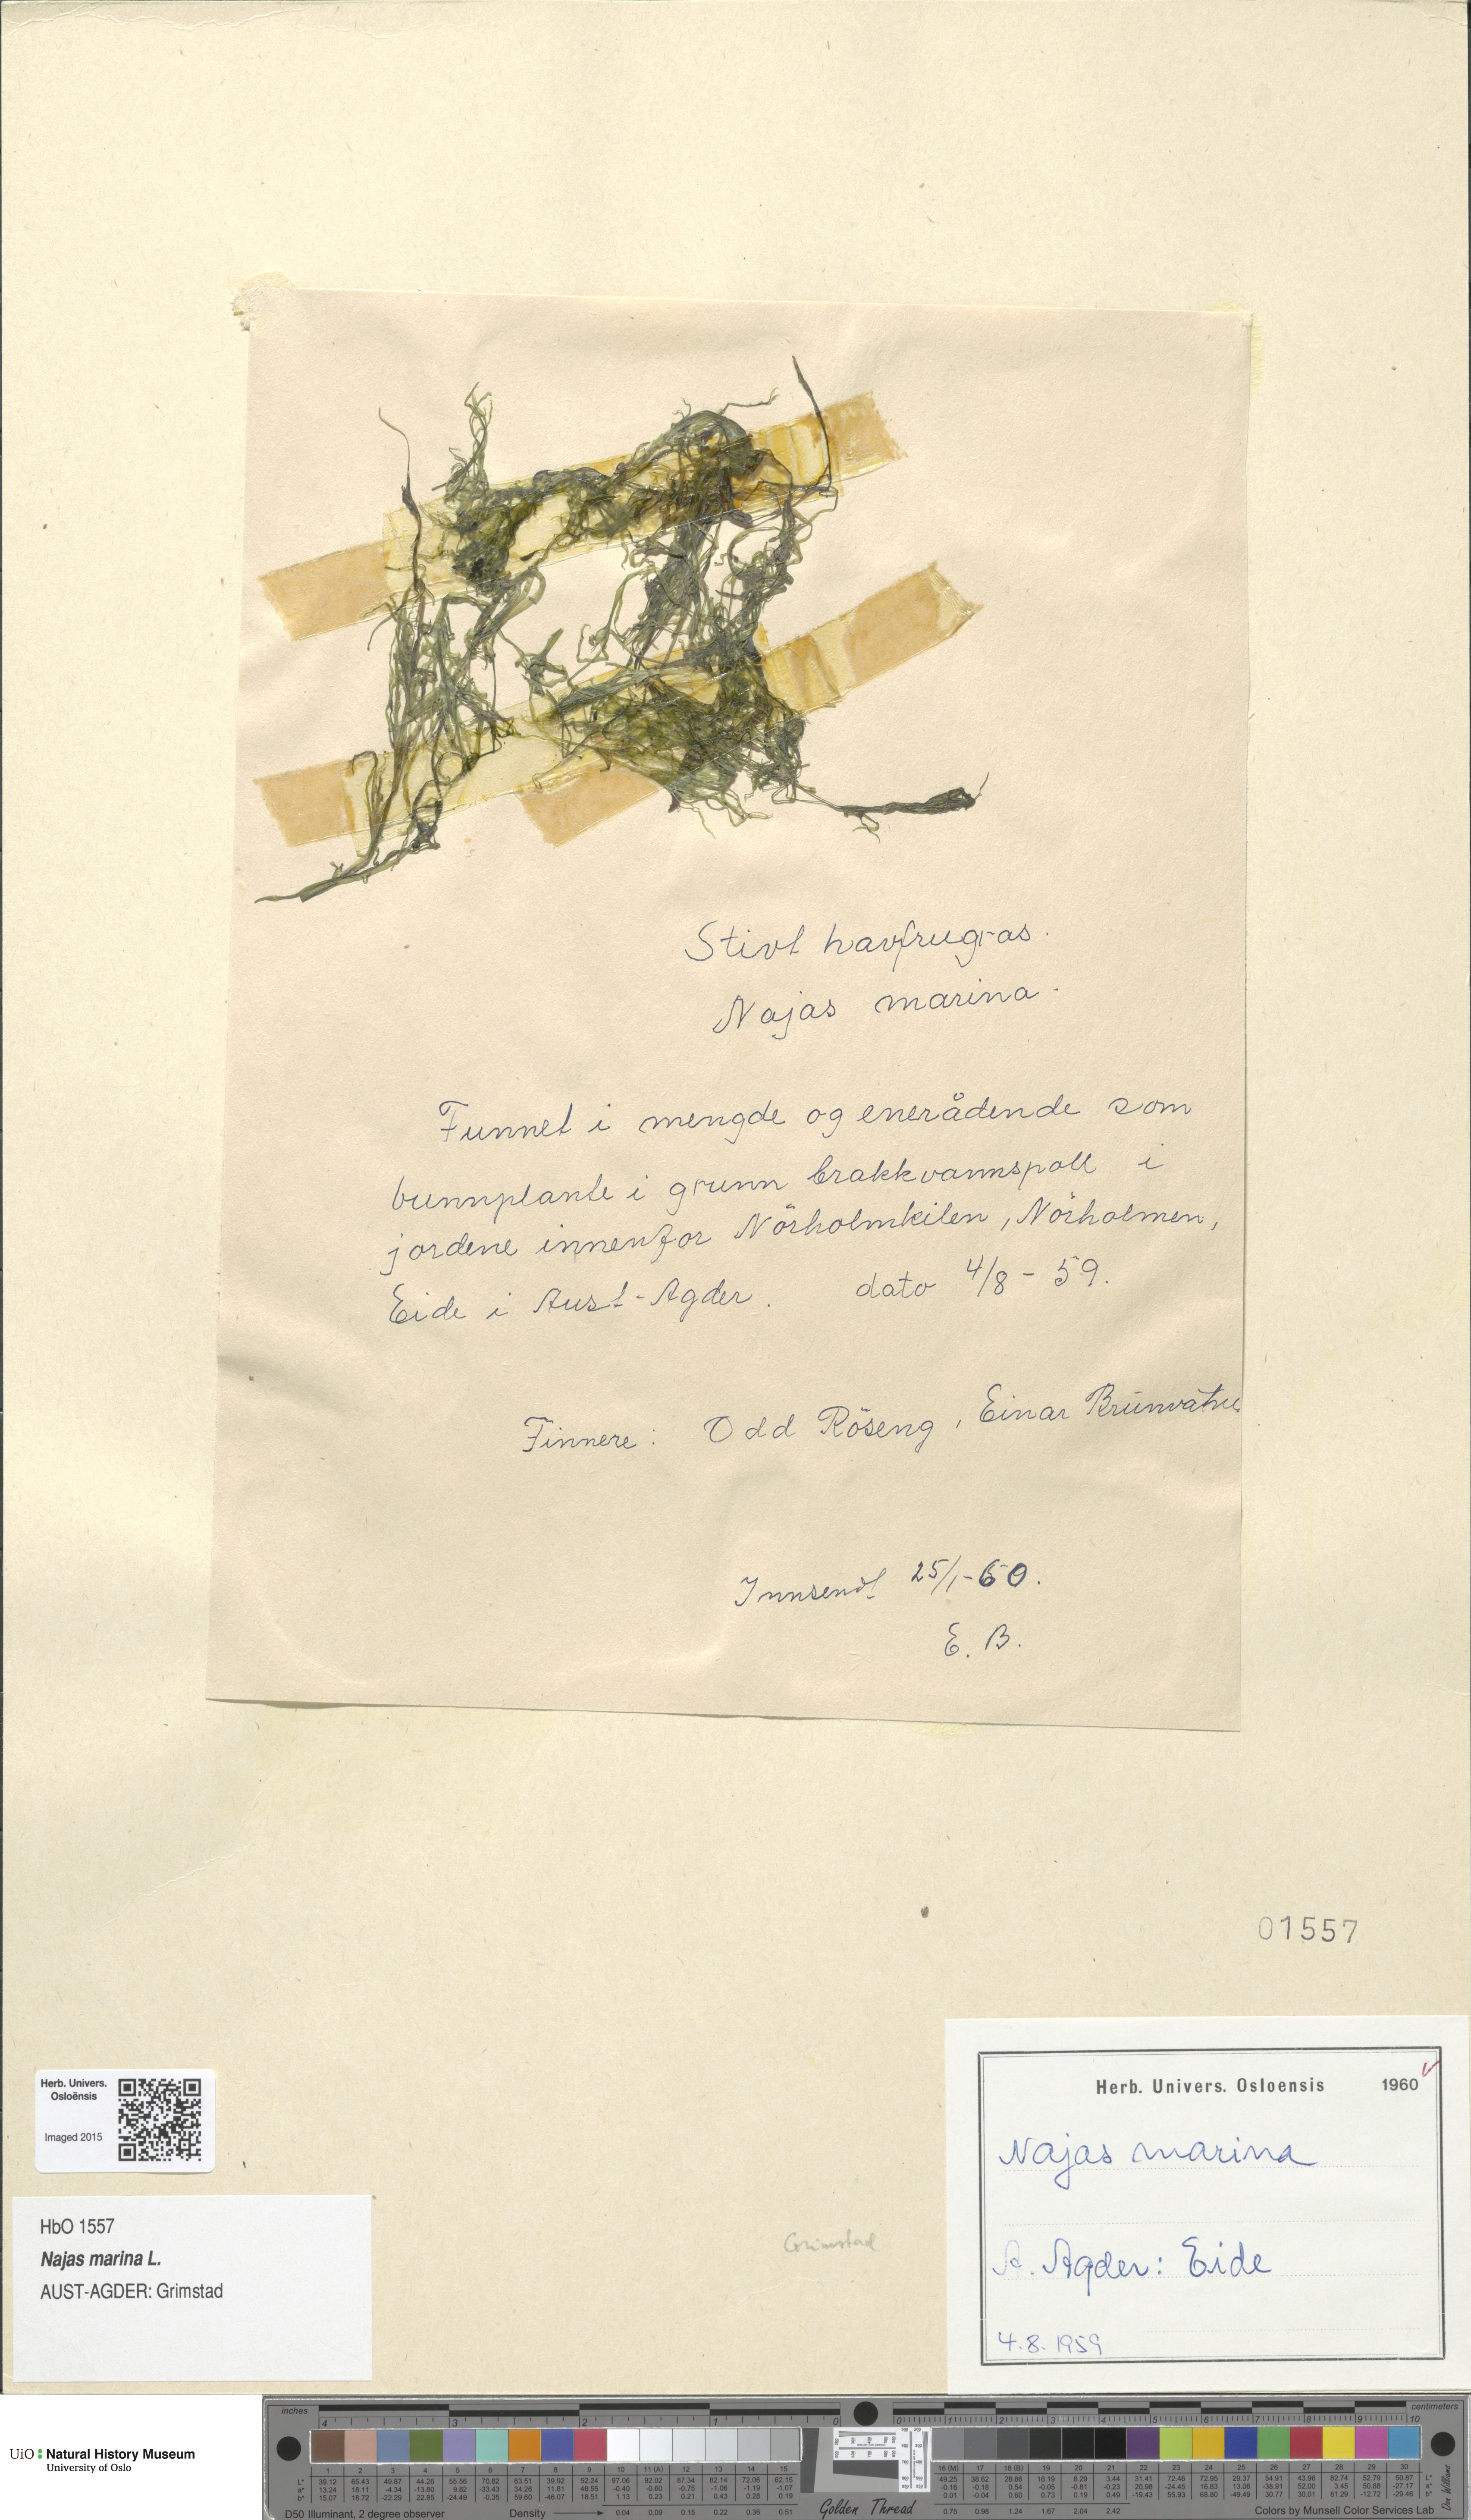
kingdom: Plantae
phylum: Tracheophyta
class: Liliopsida
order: Alismatales
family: Hydrocharitaceae
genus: Najas
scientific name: Najas marina
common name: Holly-leaved naiad
